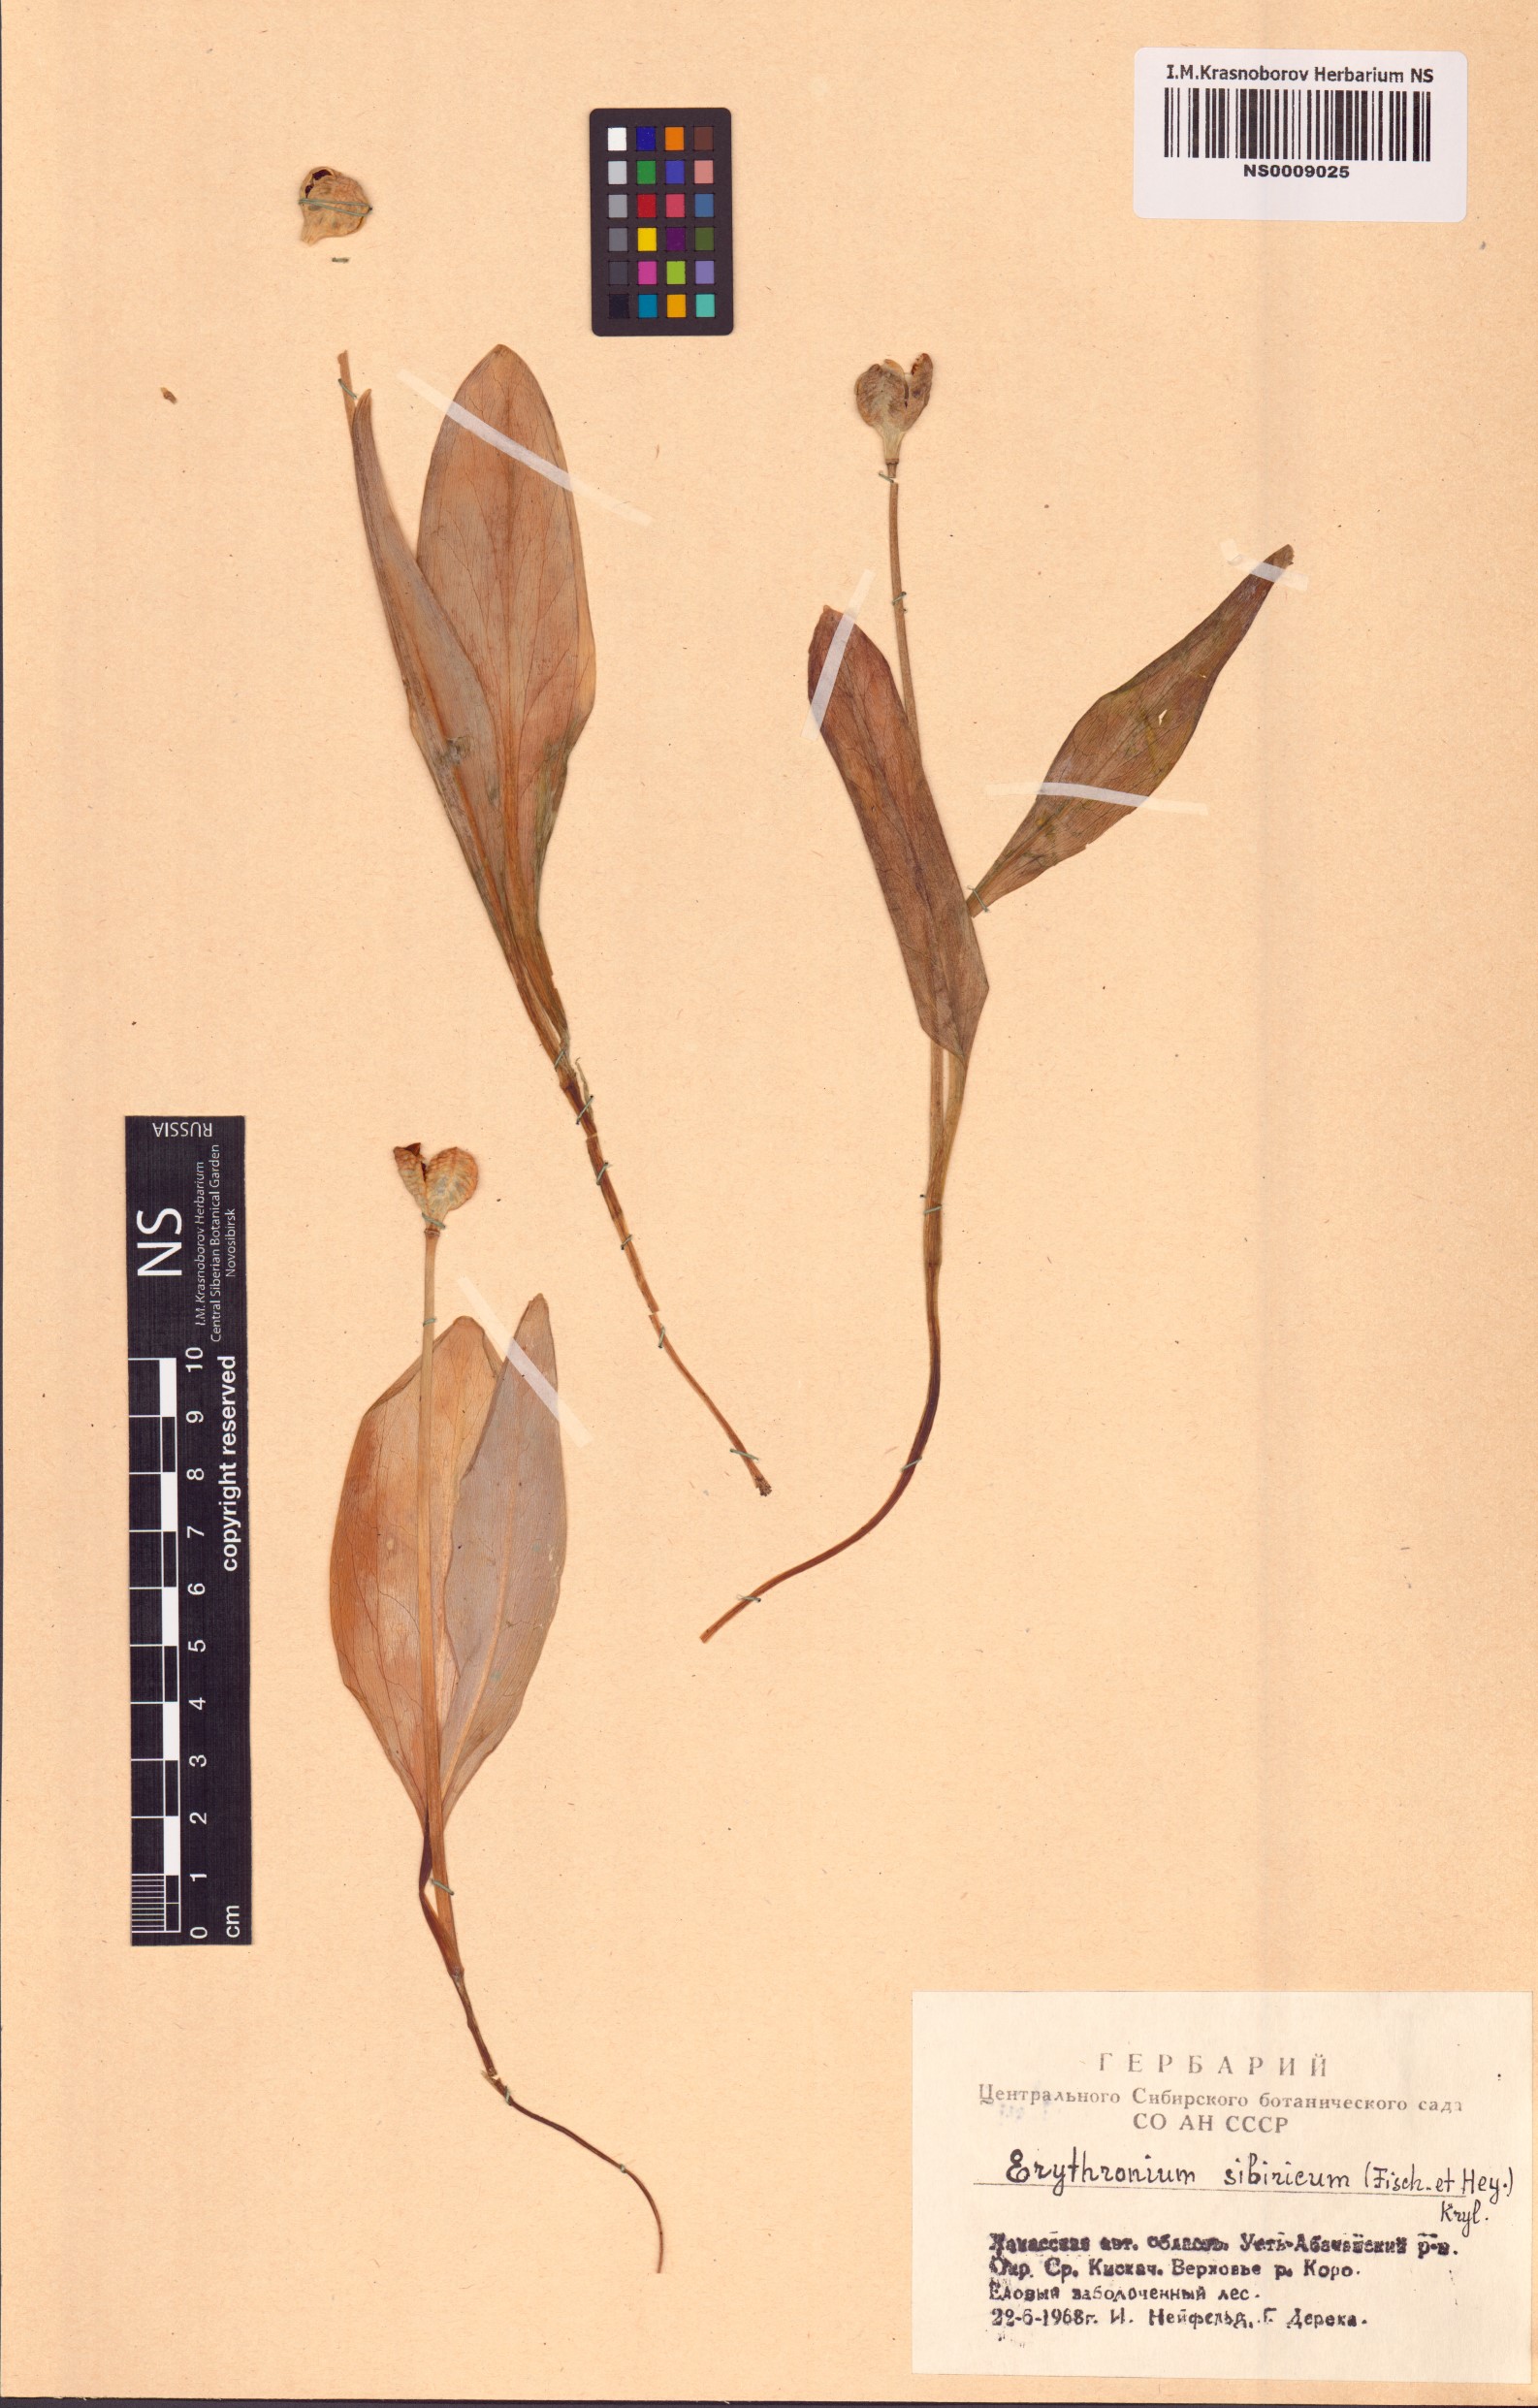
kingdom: Plantae
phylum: Tracheophyta
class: Liliopsida
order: Liliales
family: Liliaceae
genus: Erythronium
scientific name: Erythronium sibiricum
